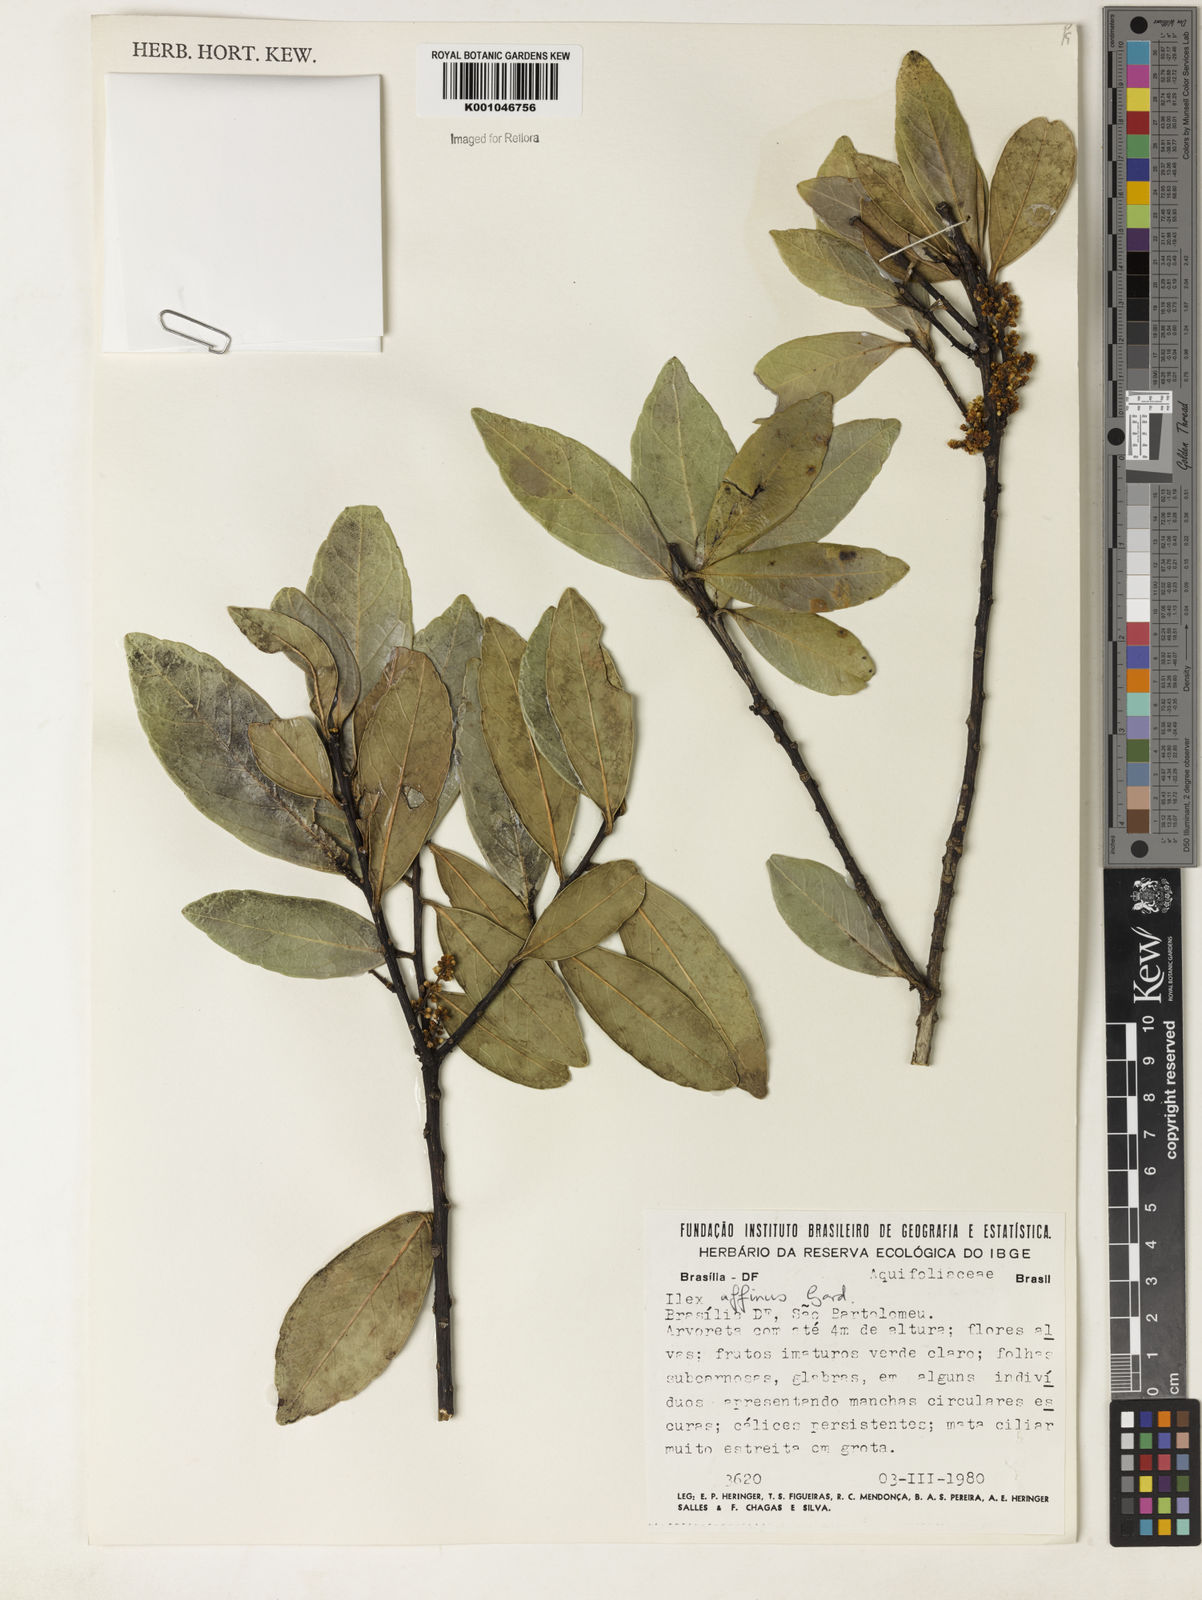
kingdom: Plantae
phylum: Tracheophyta
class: Magnoliopsida
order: Aquifoliales
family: Aquifoliaceae
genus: Ilex
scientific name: Ilex affinis
